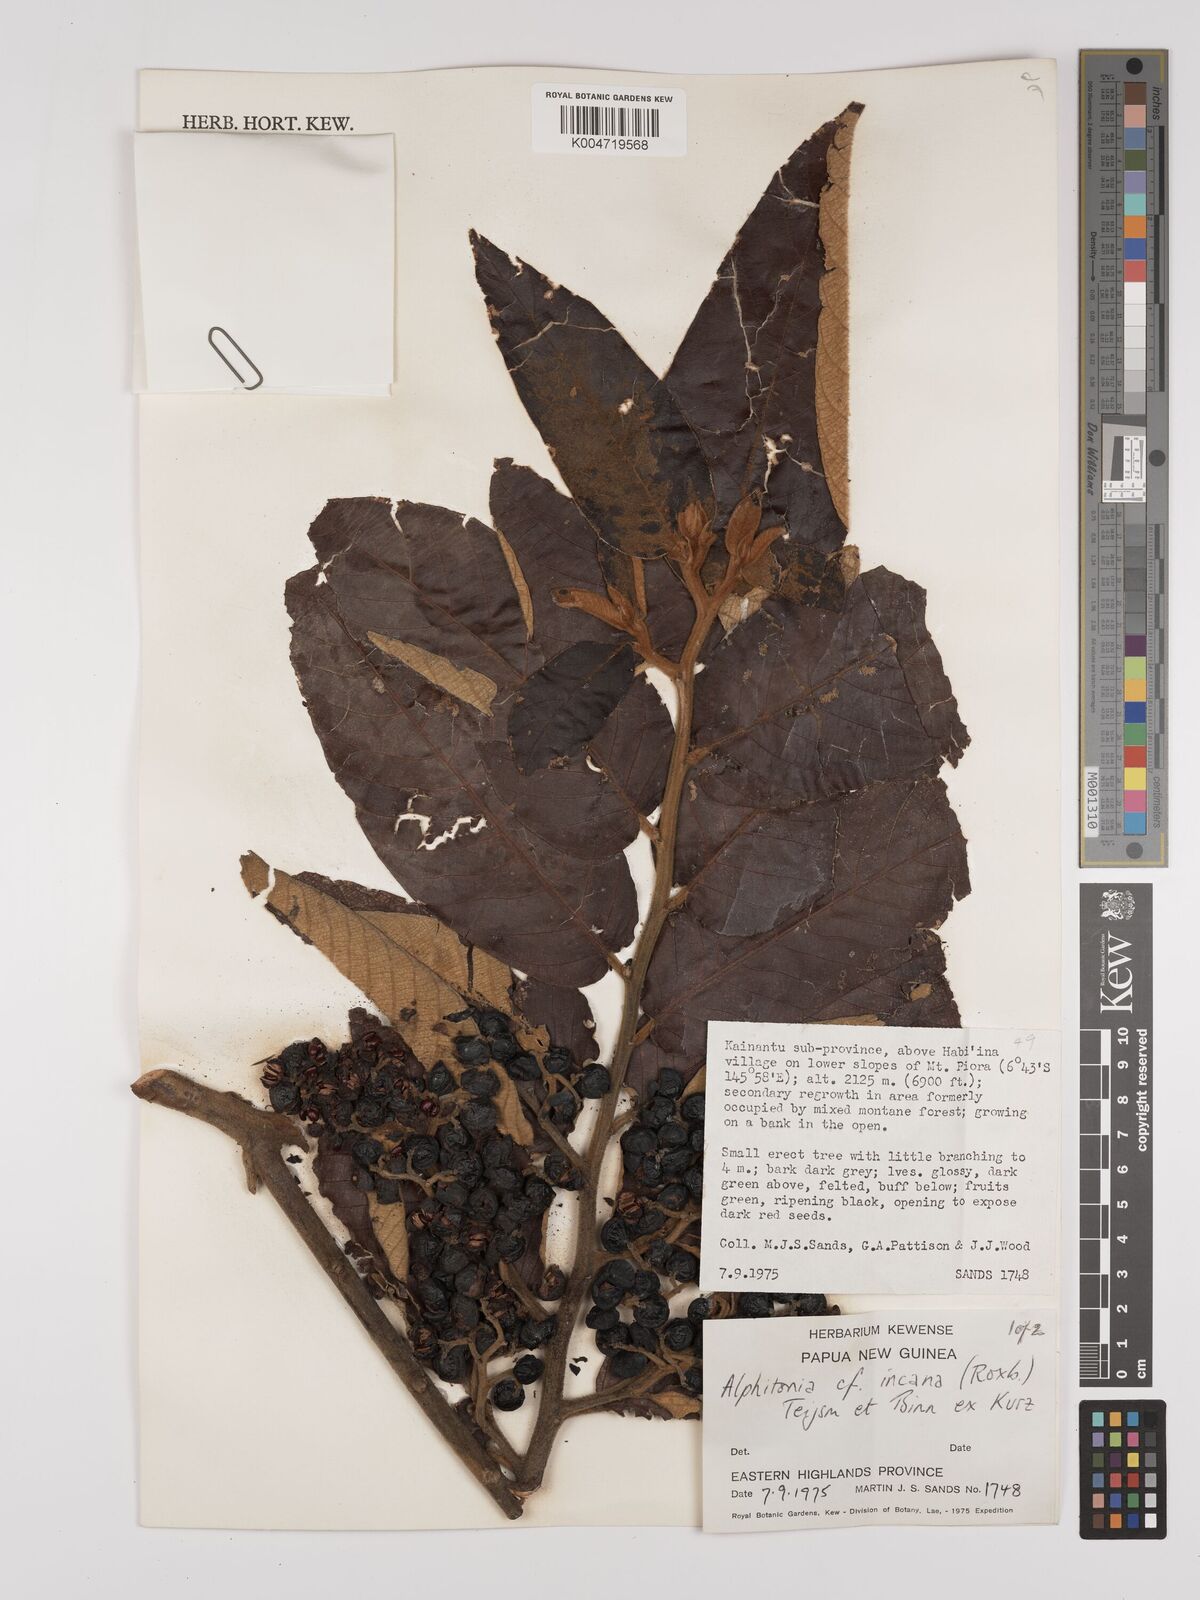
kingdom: Plantae
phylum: Tracheophyta
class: Magnoliopsida
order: Rosales
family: Rhamnaceae
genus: Alphitonia
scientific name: Alphitonia incana
